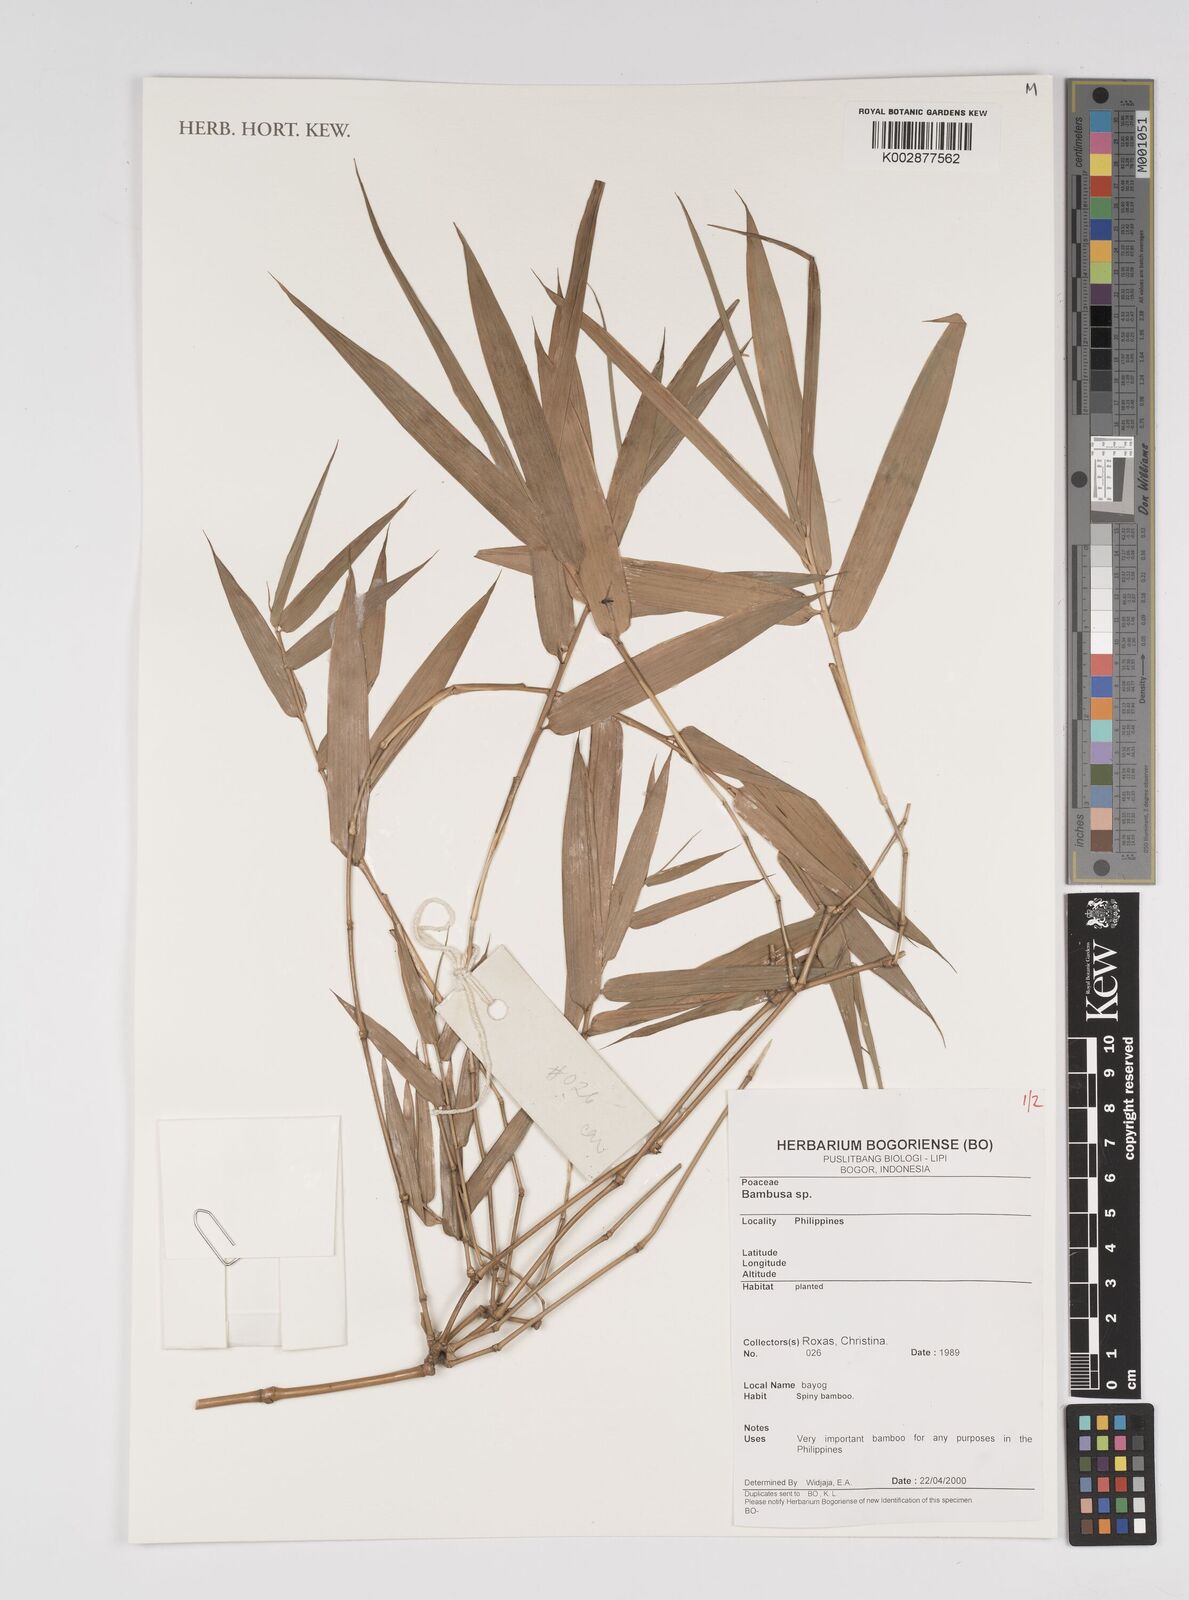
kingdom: Plantae
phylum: Tracheophyta
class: Liliopsida
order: Poales
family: Poaceae
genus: Bambusa
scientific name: Bambusa
